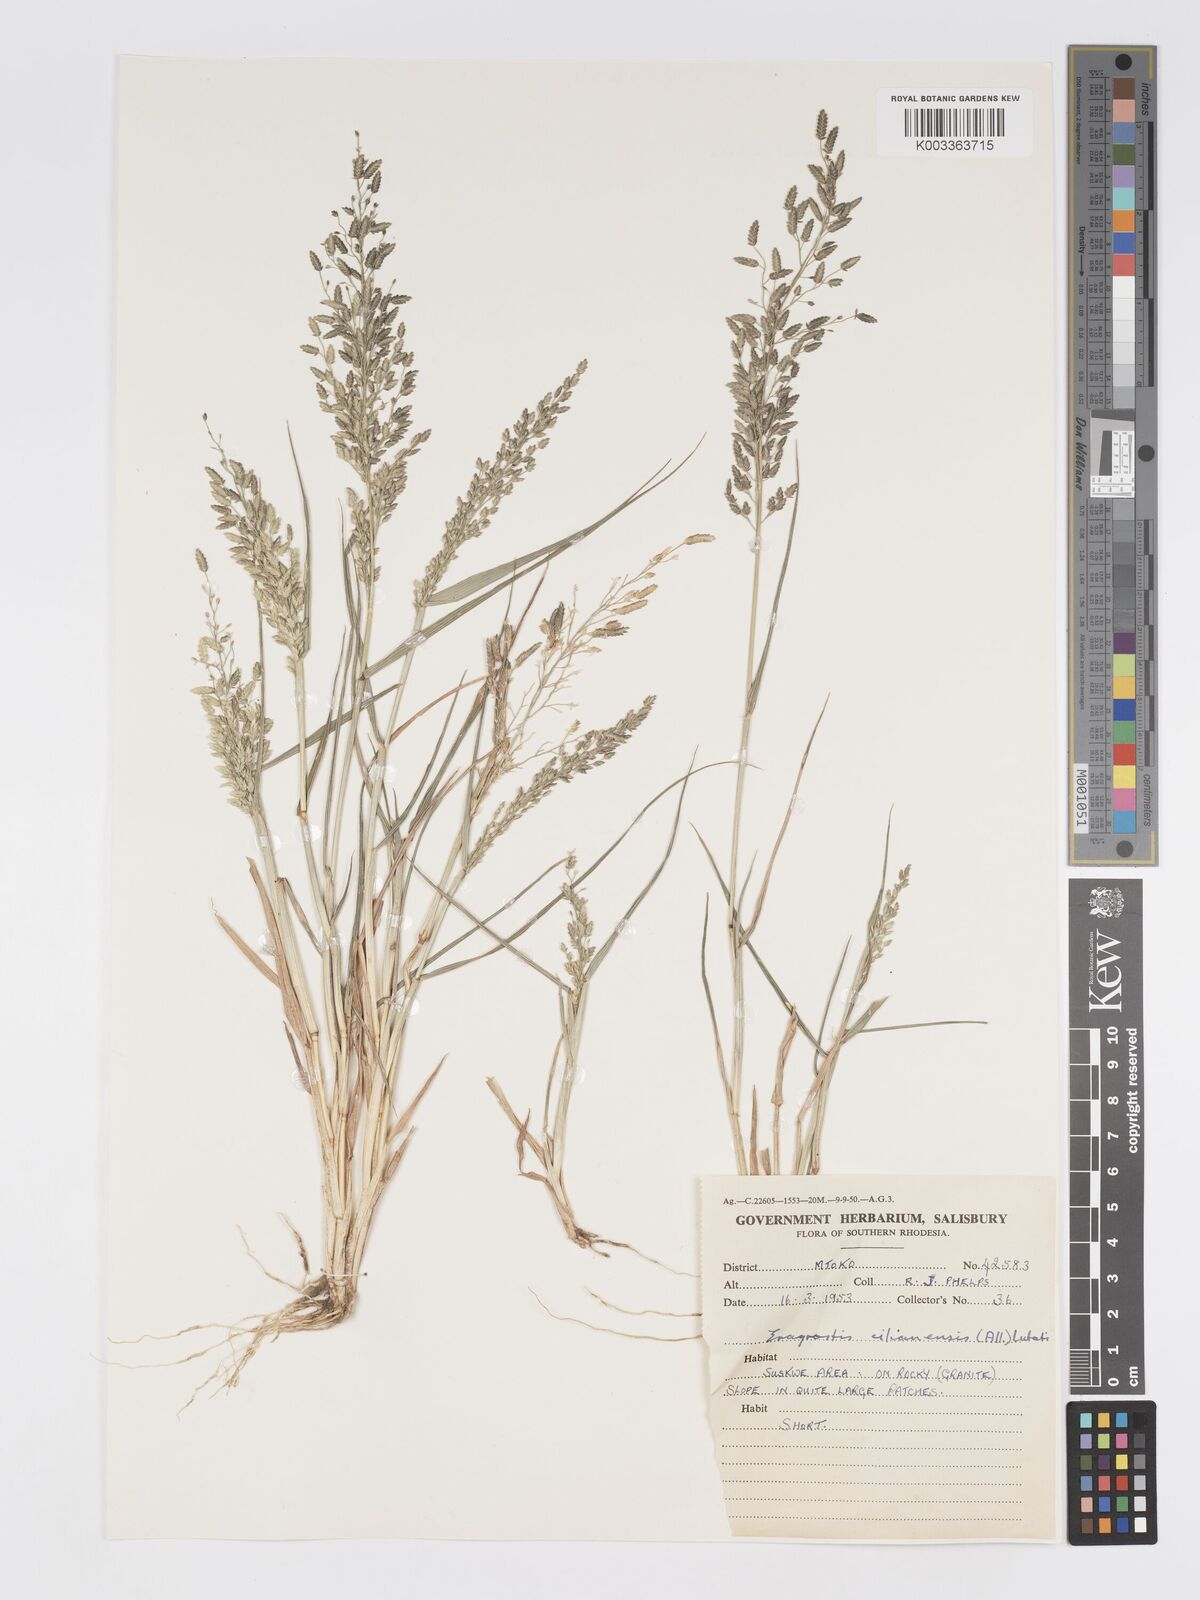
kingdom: Plantae
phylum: Tracheophyta
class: Liliopsida
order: Poales
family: Poaceae
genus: Eragrostis
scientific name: Eragrostis cilianensis
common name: Stinkgrass
